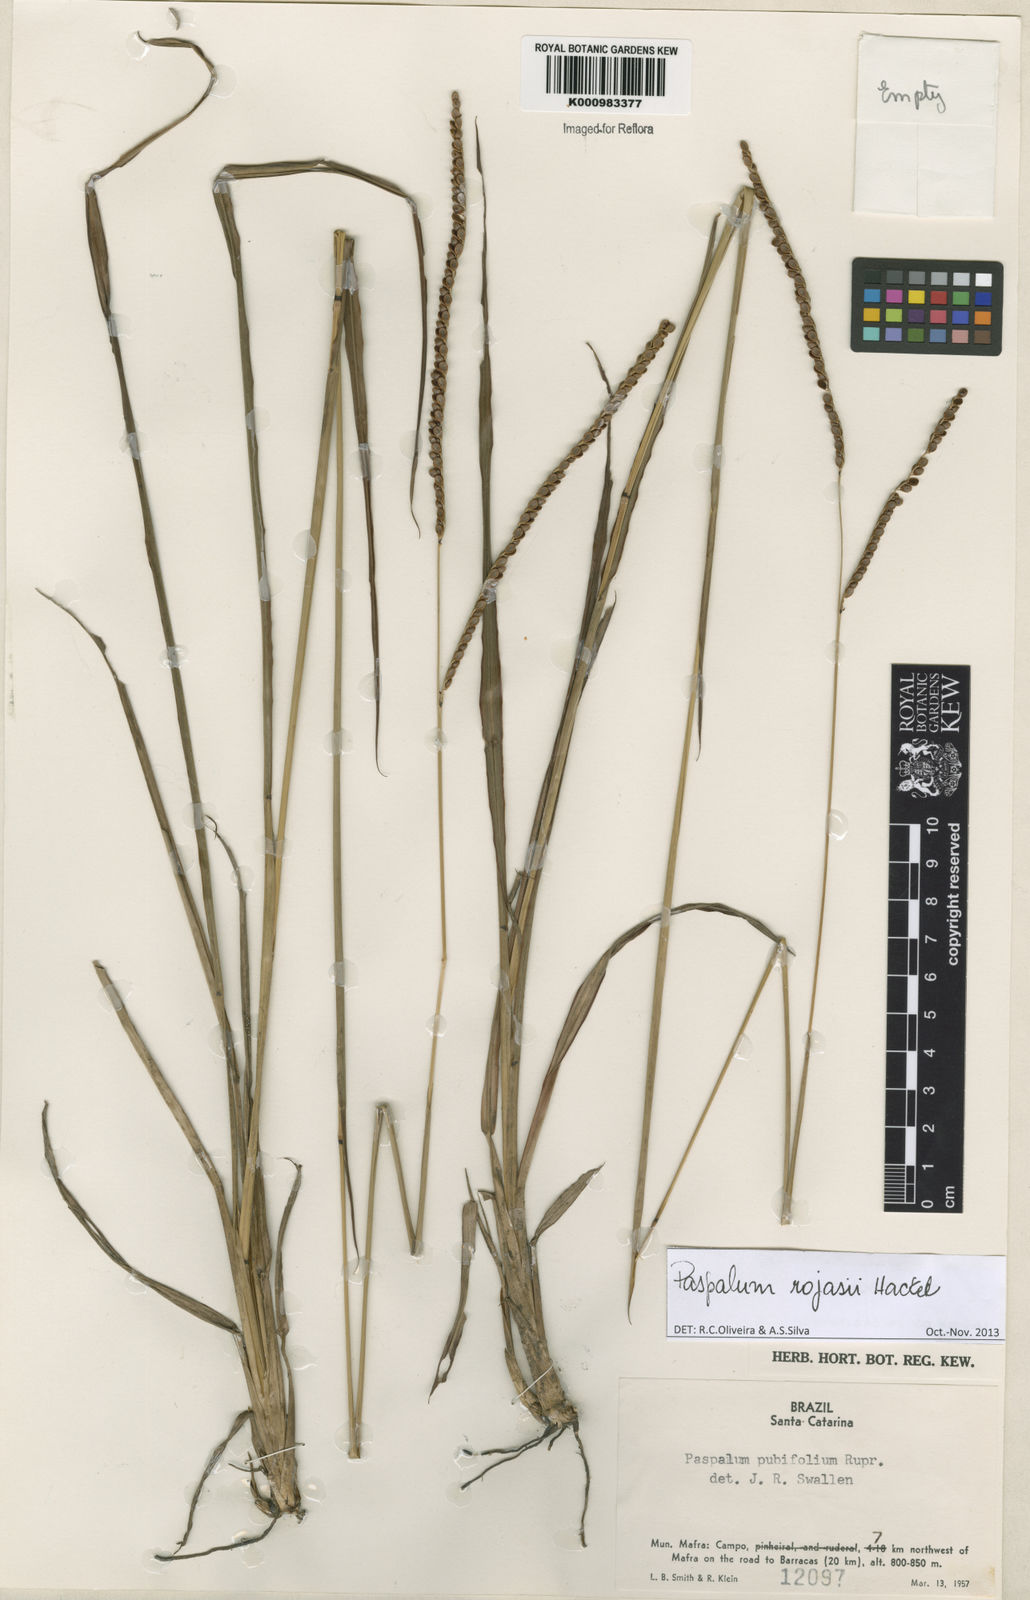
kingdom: Plantae
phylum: Tracheophyta
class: Liliopsida
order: Poales
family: Poaceae
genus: Paspalum
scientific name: Paspalum guenoarum
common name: Wintergreen paspalum
